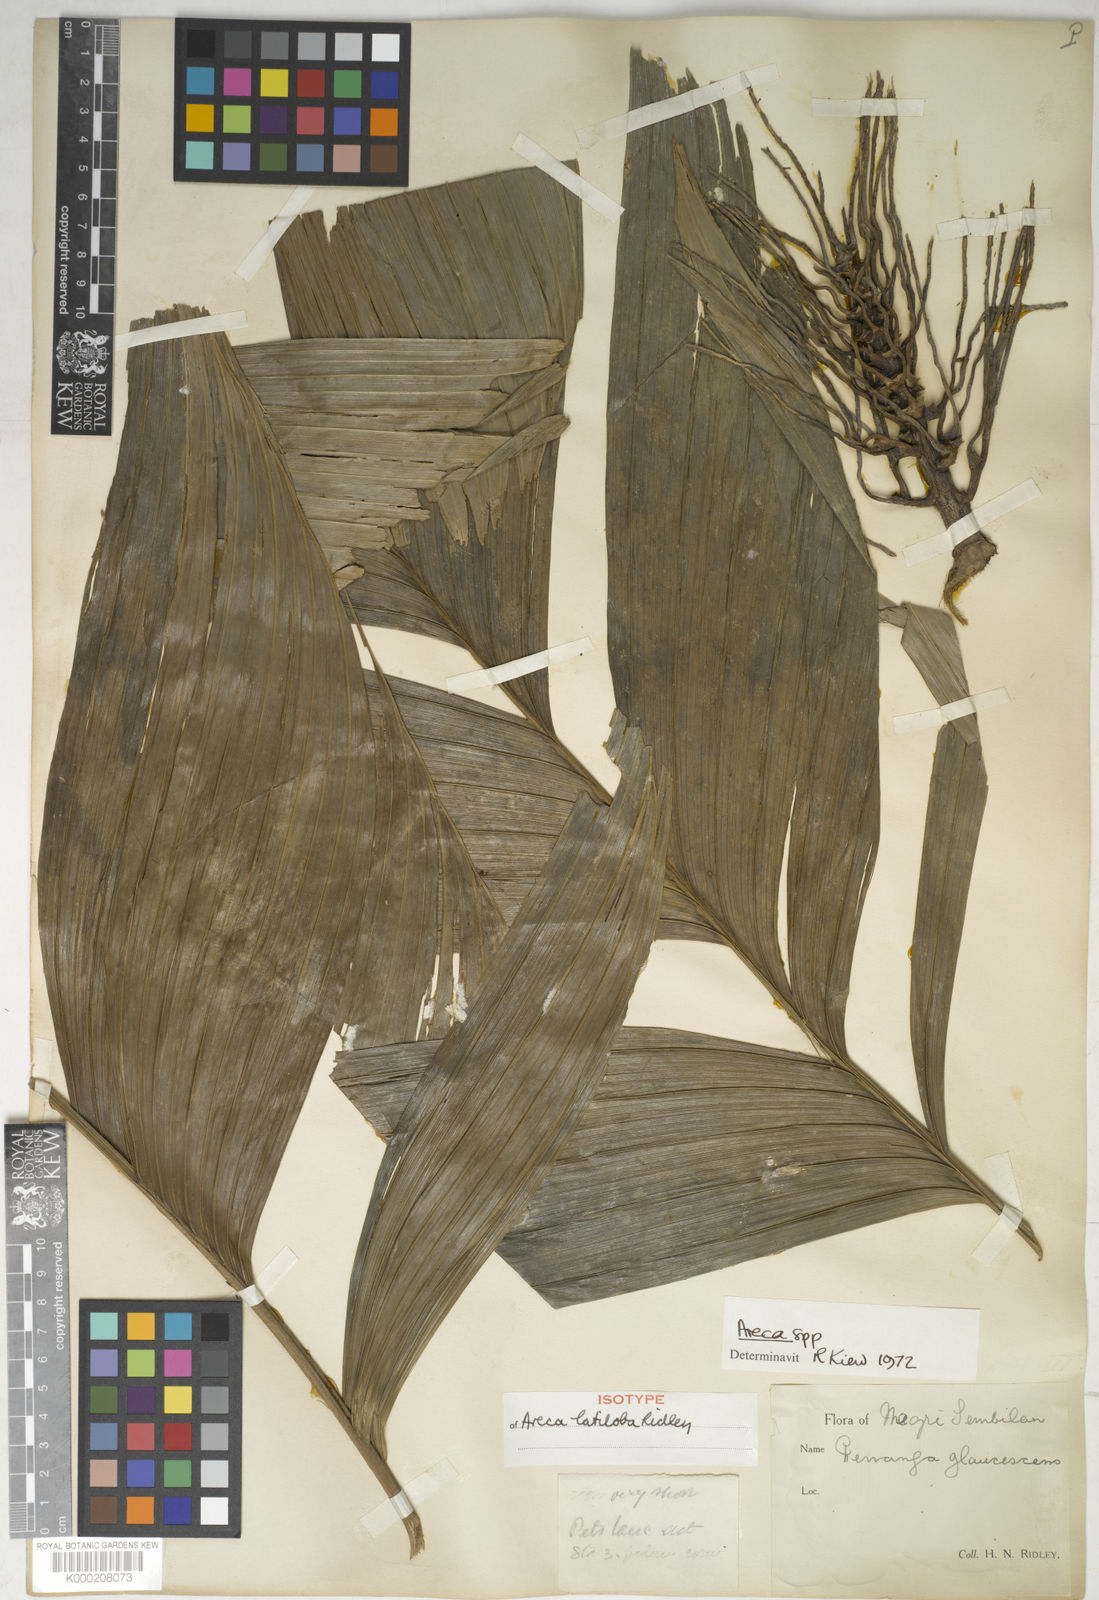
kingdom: Plantae
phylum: Tracheophyta
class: Liliopsida
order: Arecales
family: Arecaceae
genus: Areca
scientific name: Areca montana
